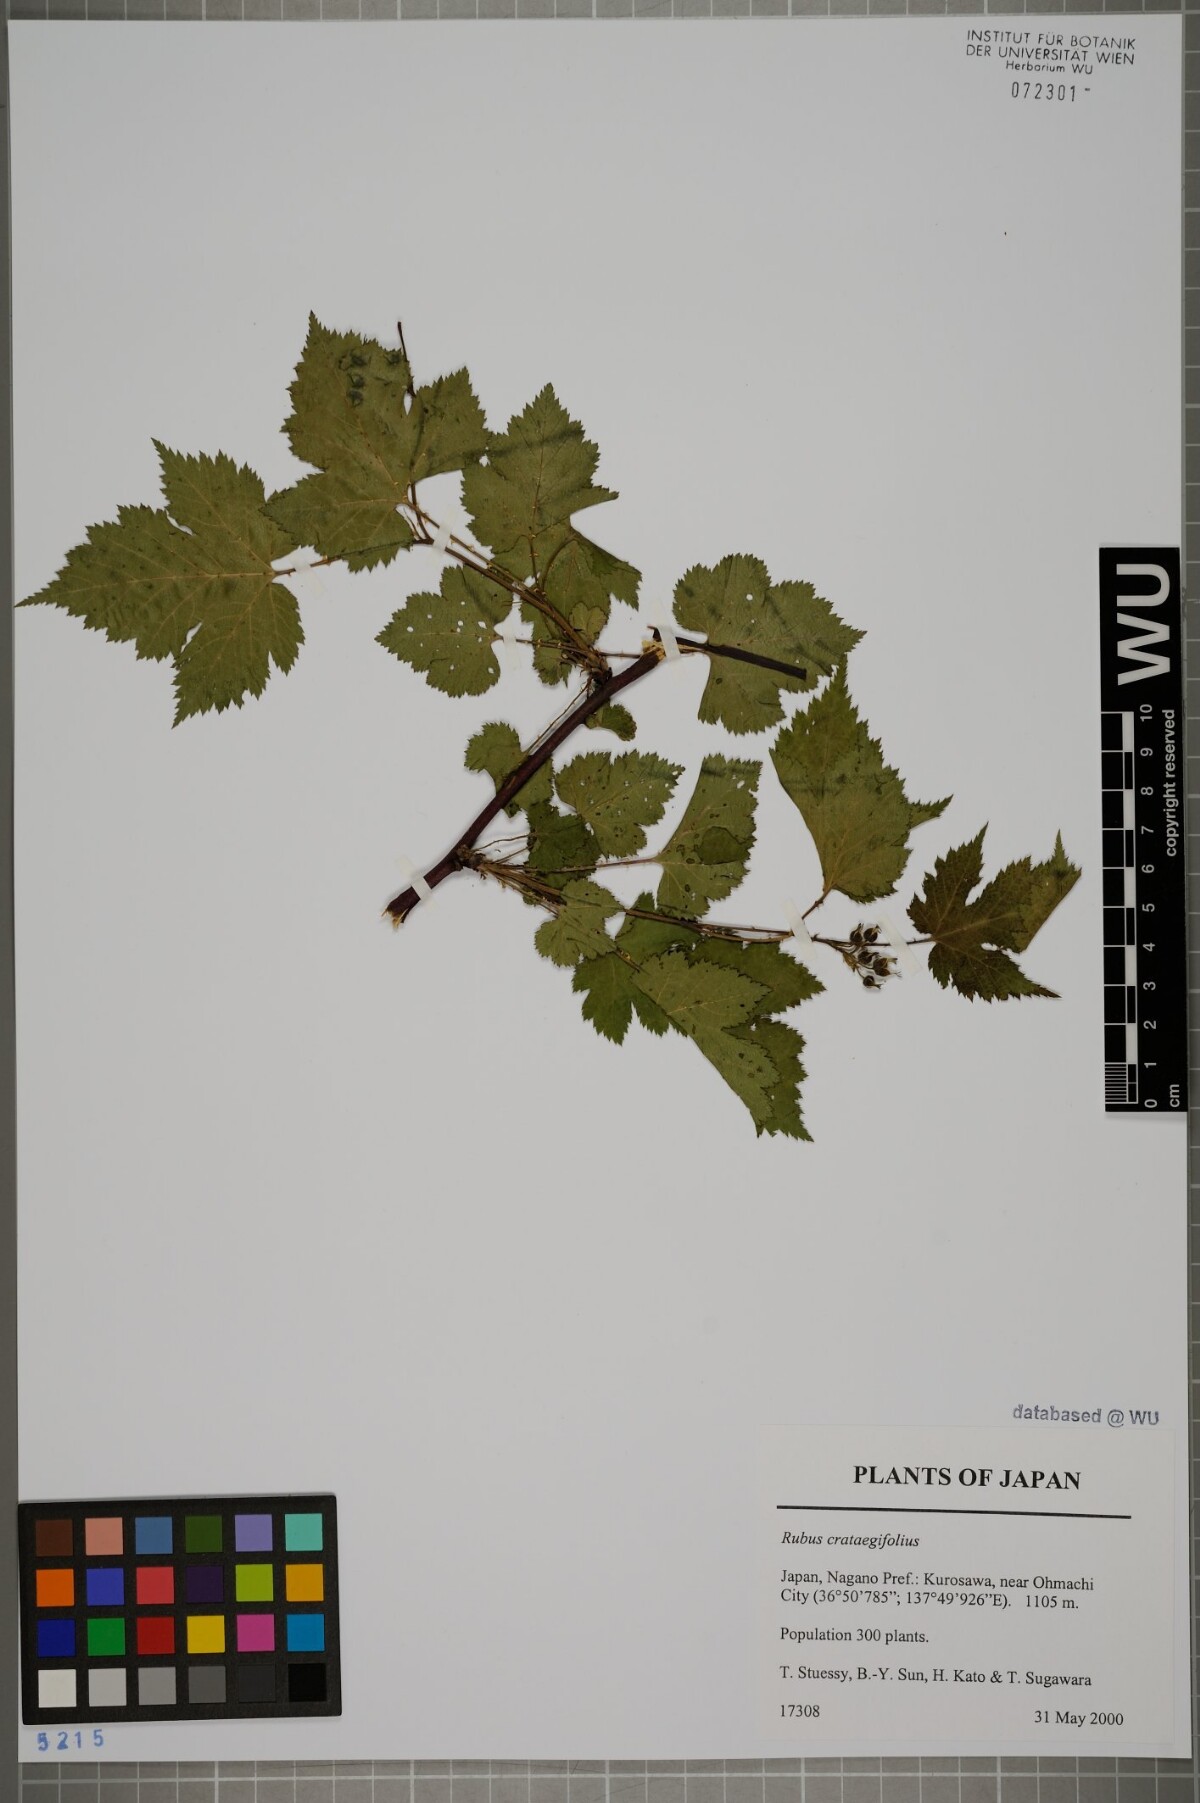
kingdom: Plantae
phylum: Tracheophyta
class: Magnoliopsida
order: Rosales
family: Rosaceae
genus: Rubus
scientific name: Rubus crataegifolius
